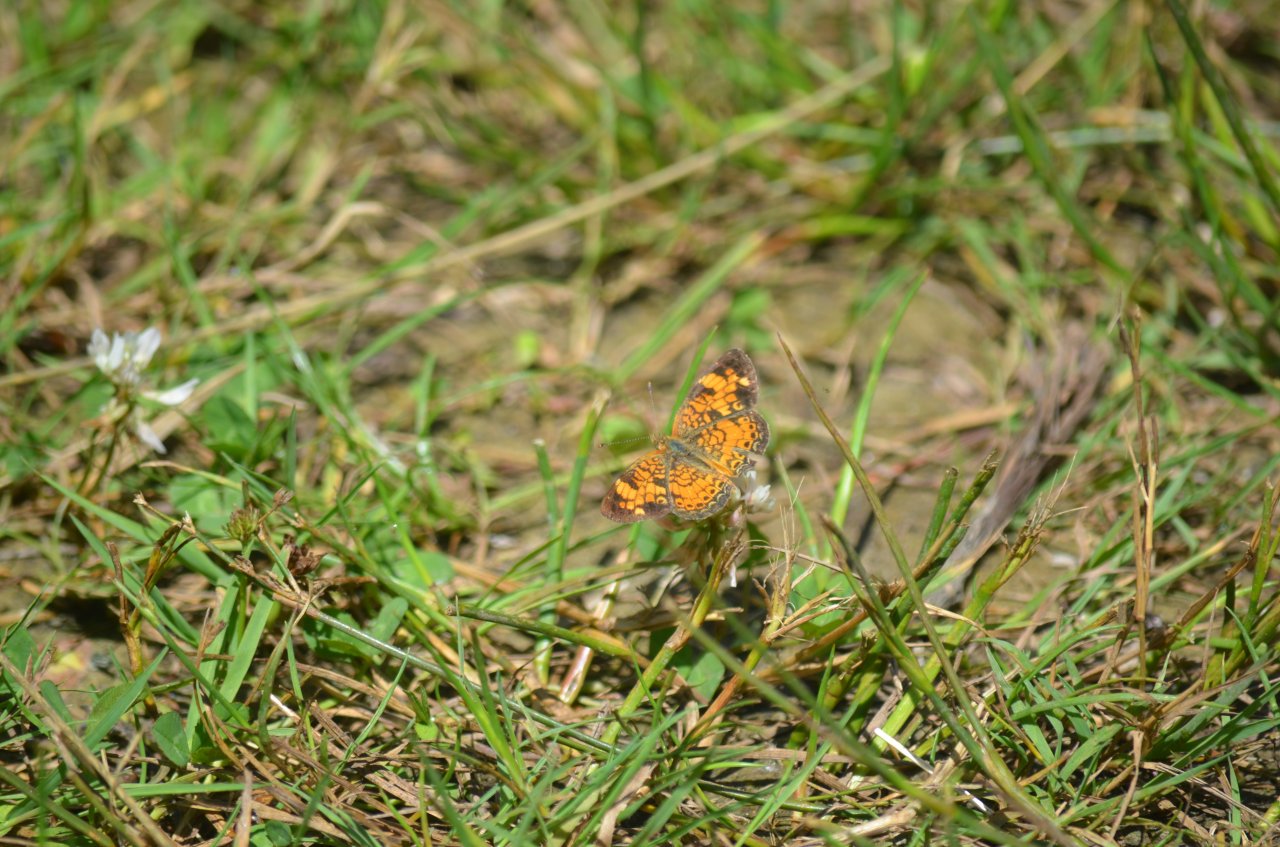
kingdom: Animalia
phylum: Arthropoda
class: Insecta
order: Lepidoptera
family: Nymphalidae
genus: Phyciodes
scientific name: Phyciodes tharos
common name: Northern Crescent
